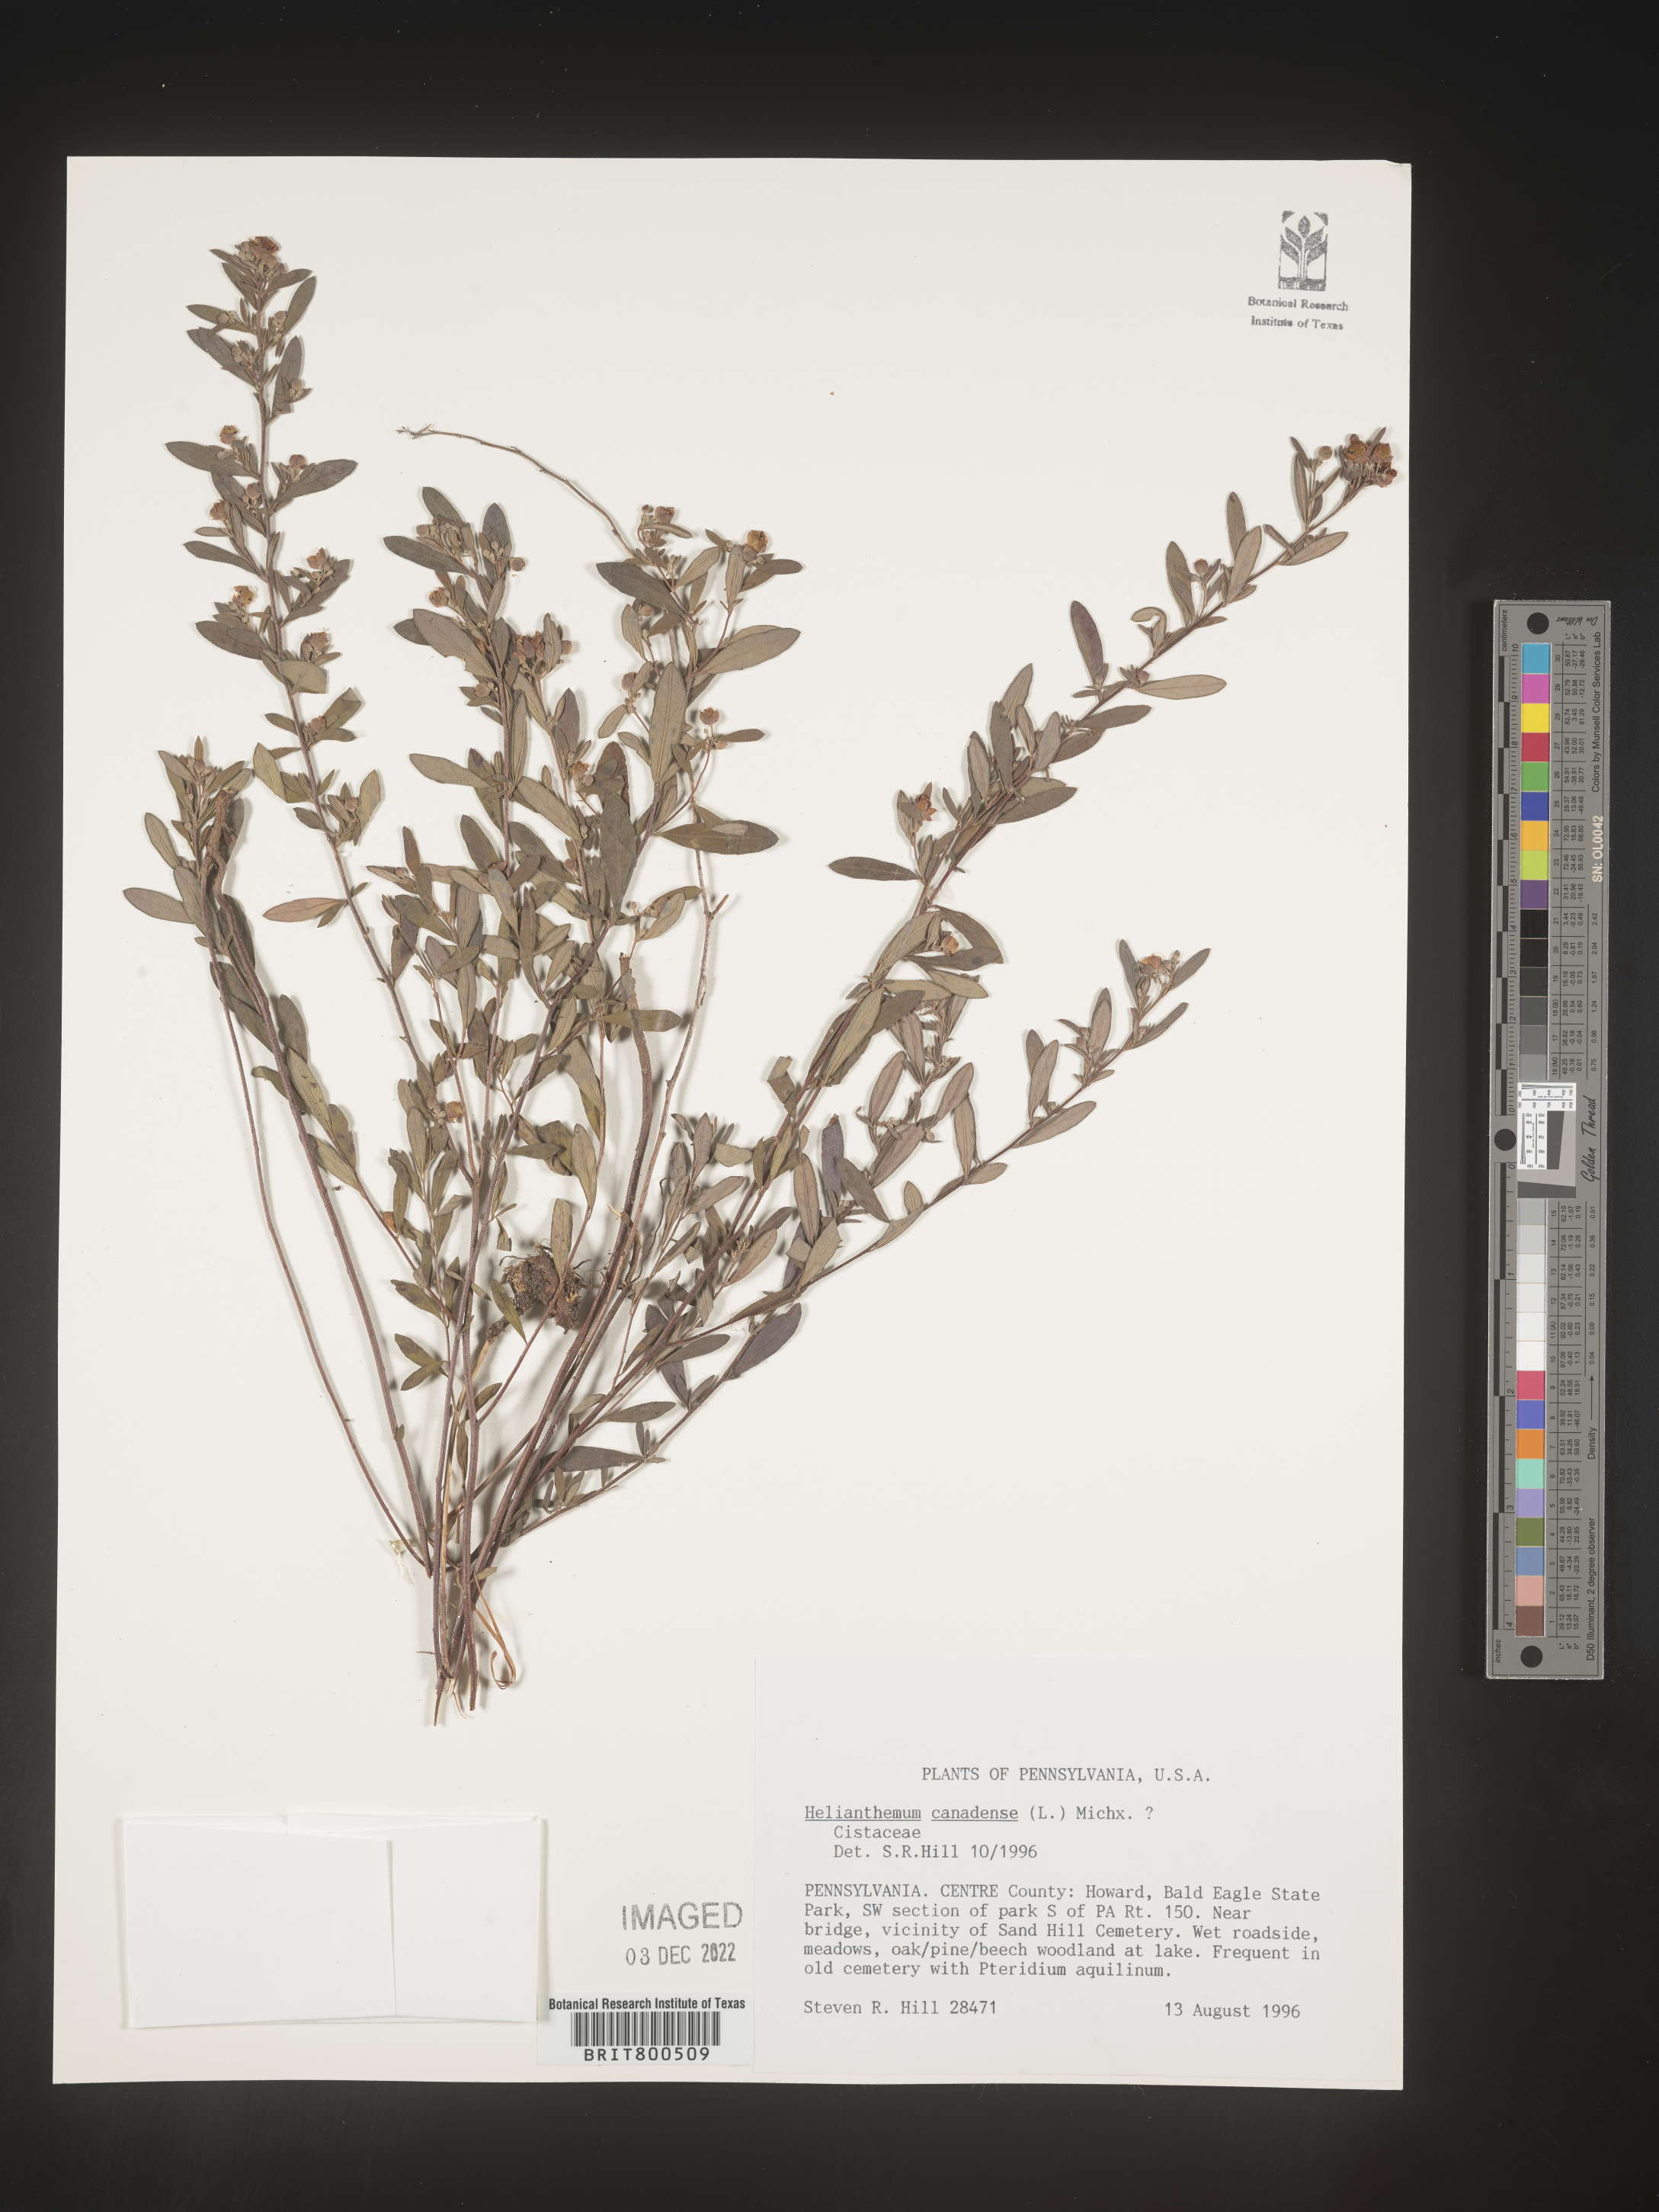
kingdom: Plantae
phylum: Tracheophyta
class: Magnoliopsida
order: Malvales
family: Cistaceae
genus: Crocanthemum
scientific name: Crocanthemum canadense
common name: Canada frostweed
